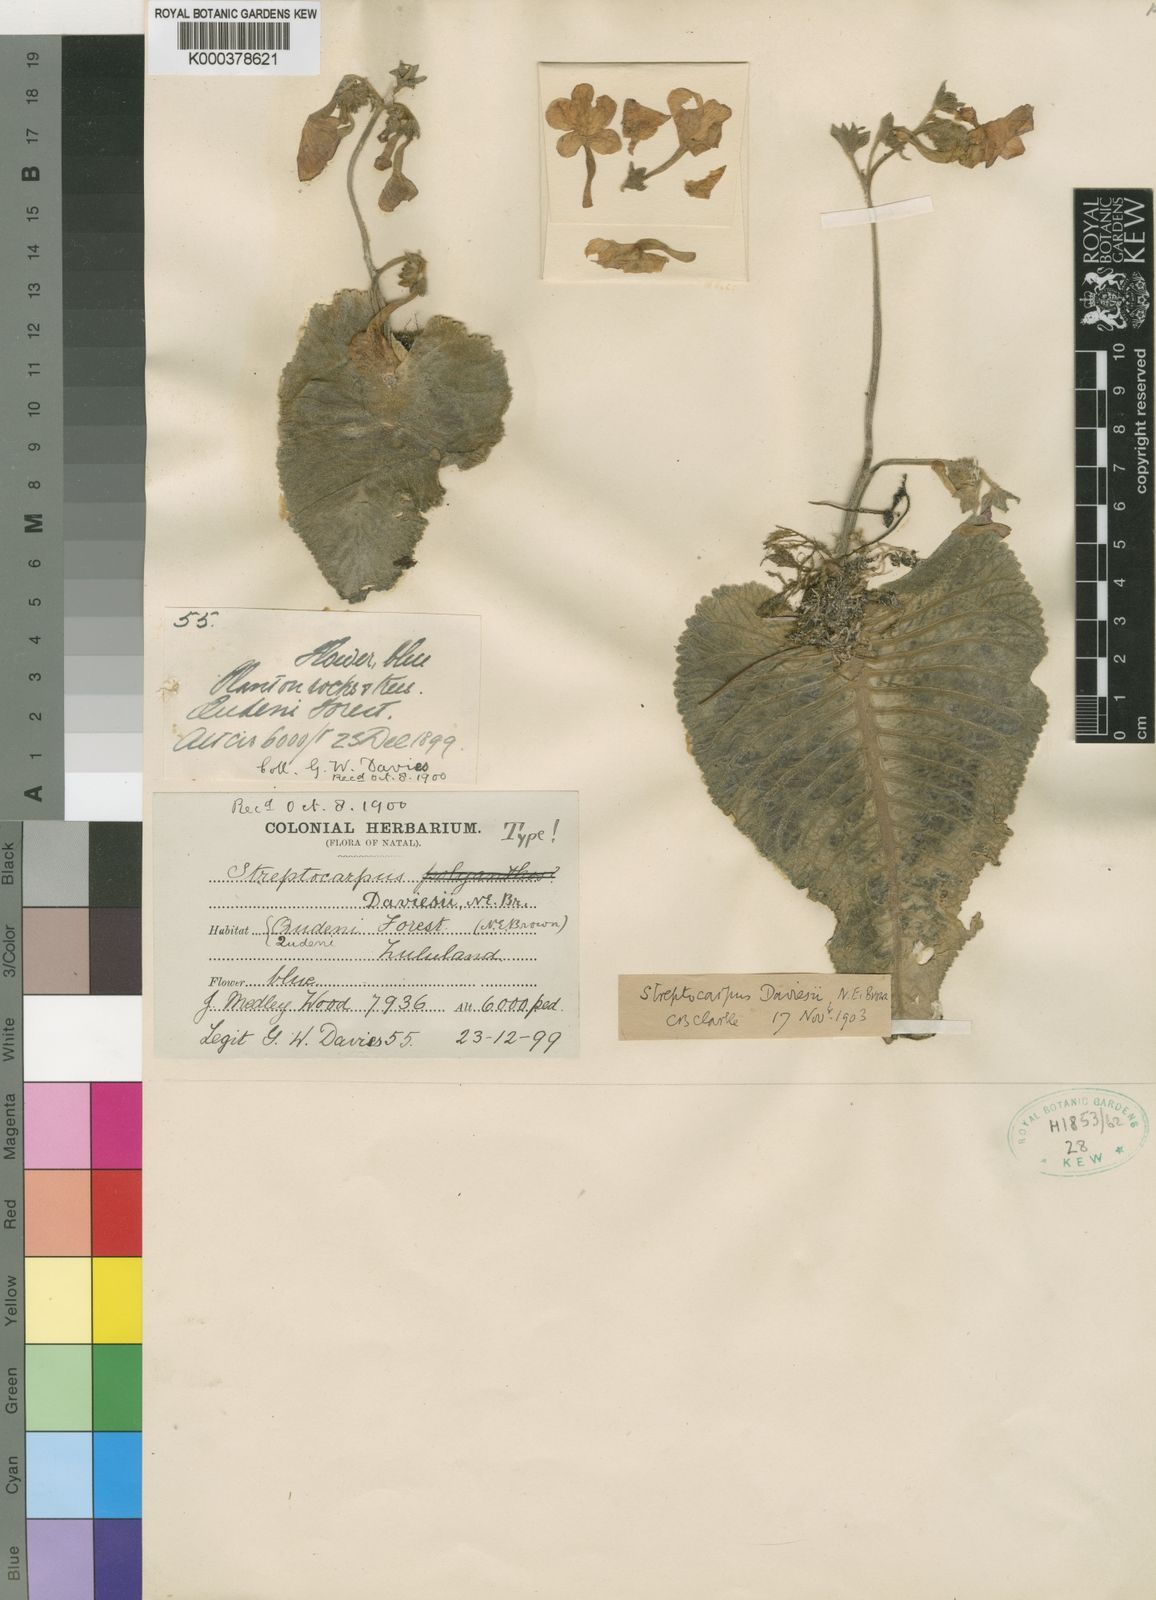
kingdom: Plantae
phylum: Tracheophyta
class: Magnoliopsida
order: Lamiales
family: Gesneriaceae
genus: Streptocarpus
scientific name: Streptocarpus daviesii
